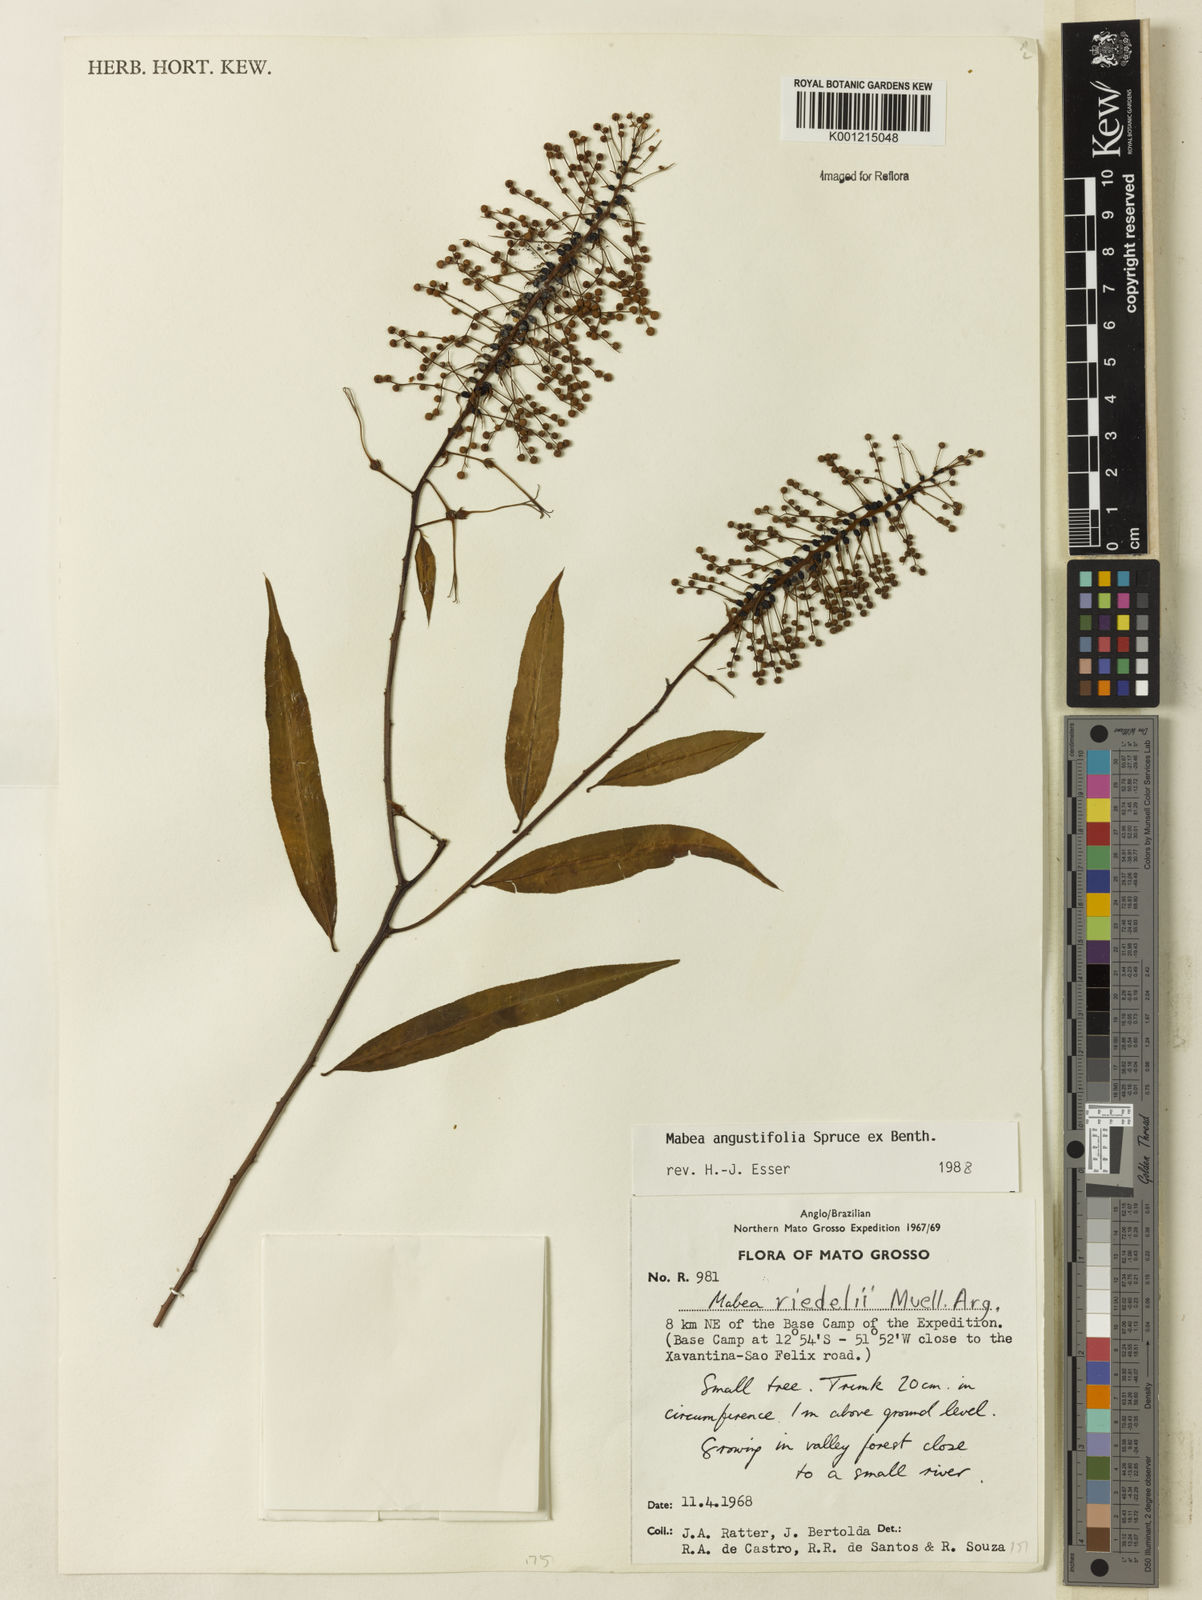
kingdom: Plantae
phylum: Tracheophyta
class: Magnoliopsida
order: Malpighiales
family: Euphorbiaceae
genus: Mabea
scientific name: Mabea
